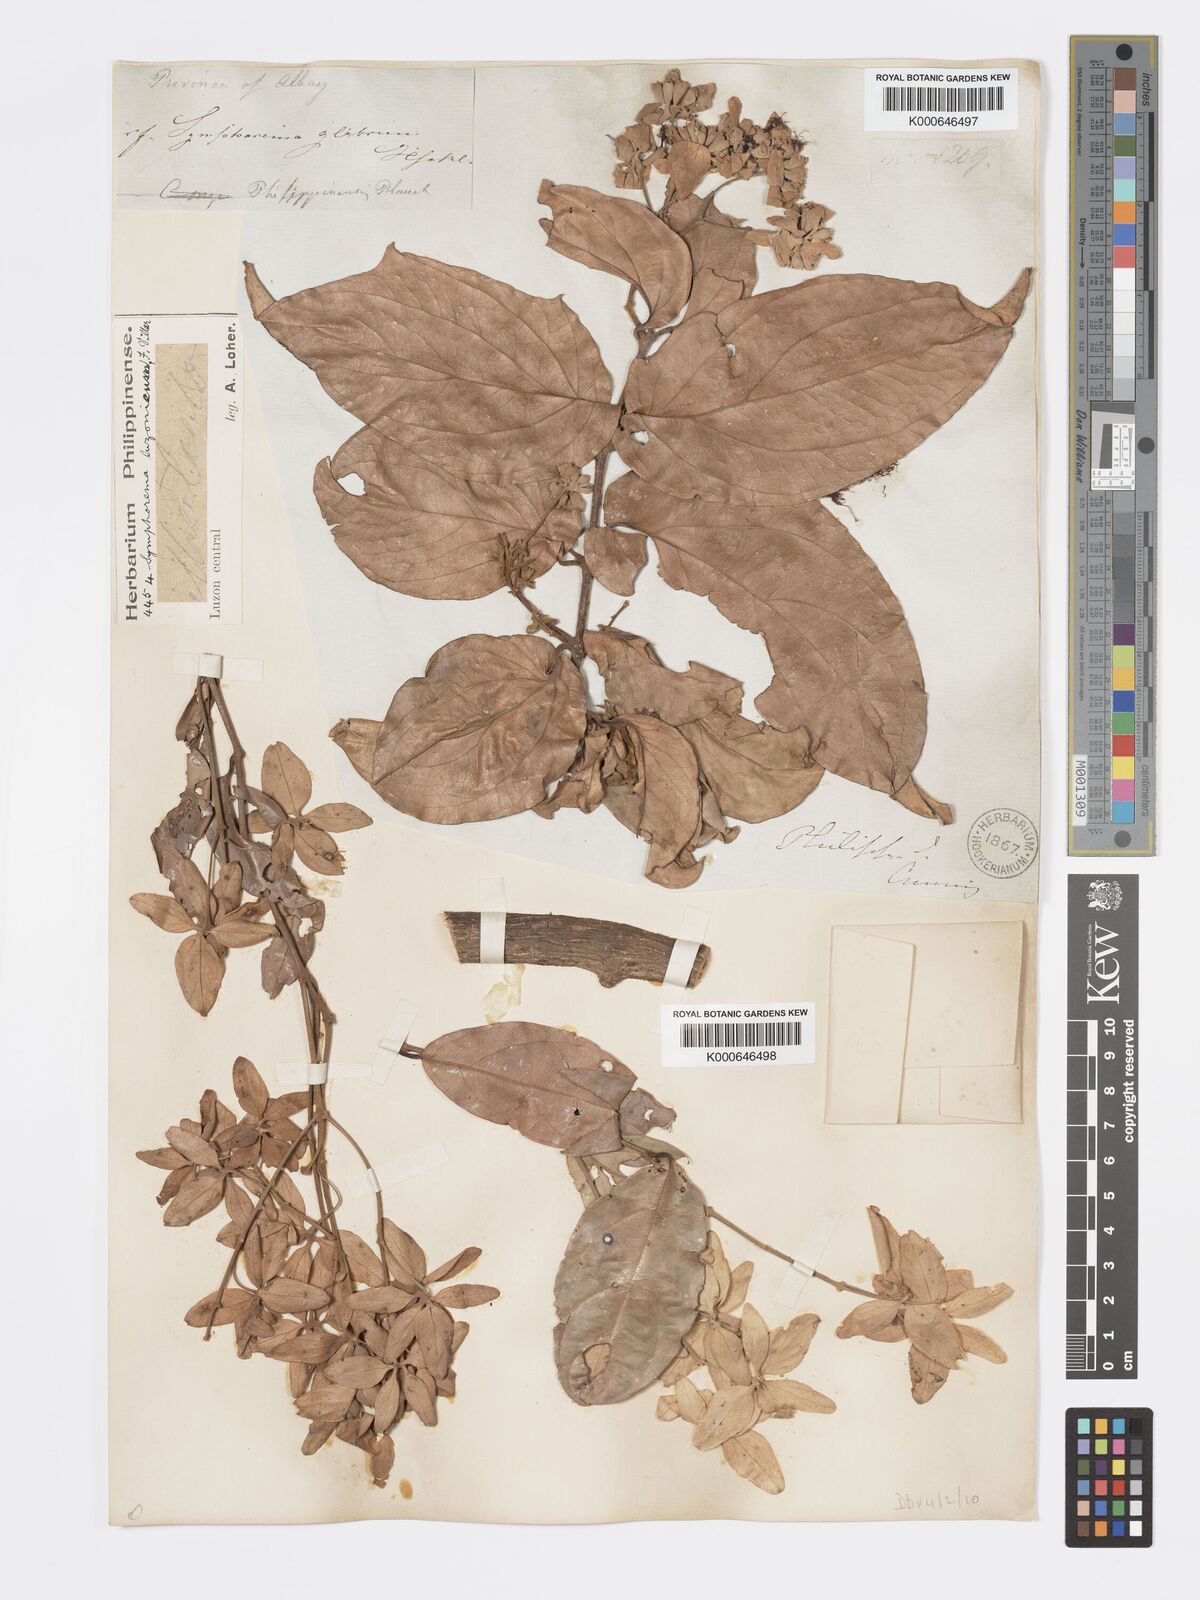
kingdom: Plantae
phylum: Tracheophyta
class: Magnoliopsida
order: Lamiales
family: Lamiaceae
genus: Symphorema
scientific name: Symphorema luzonicum
